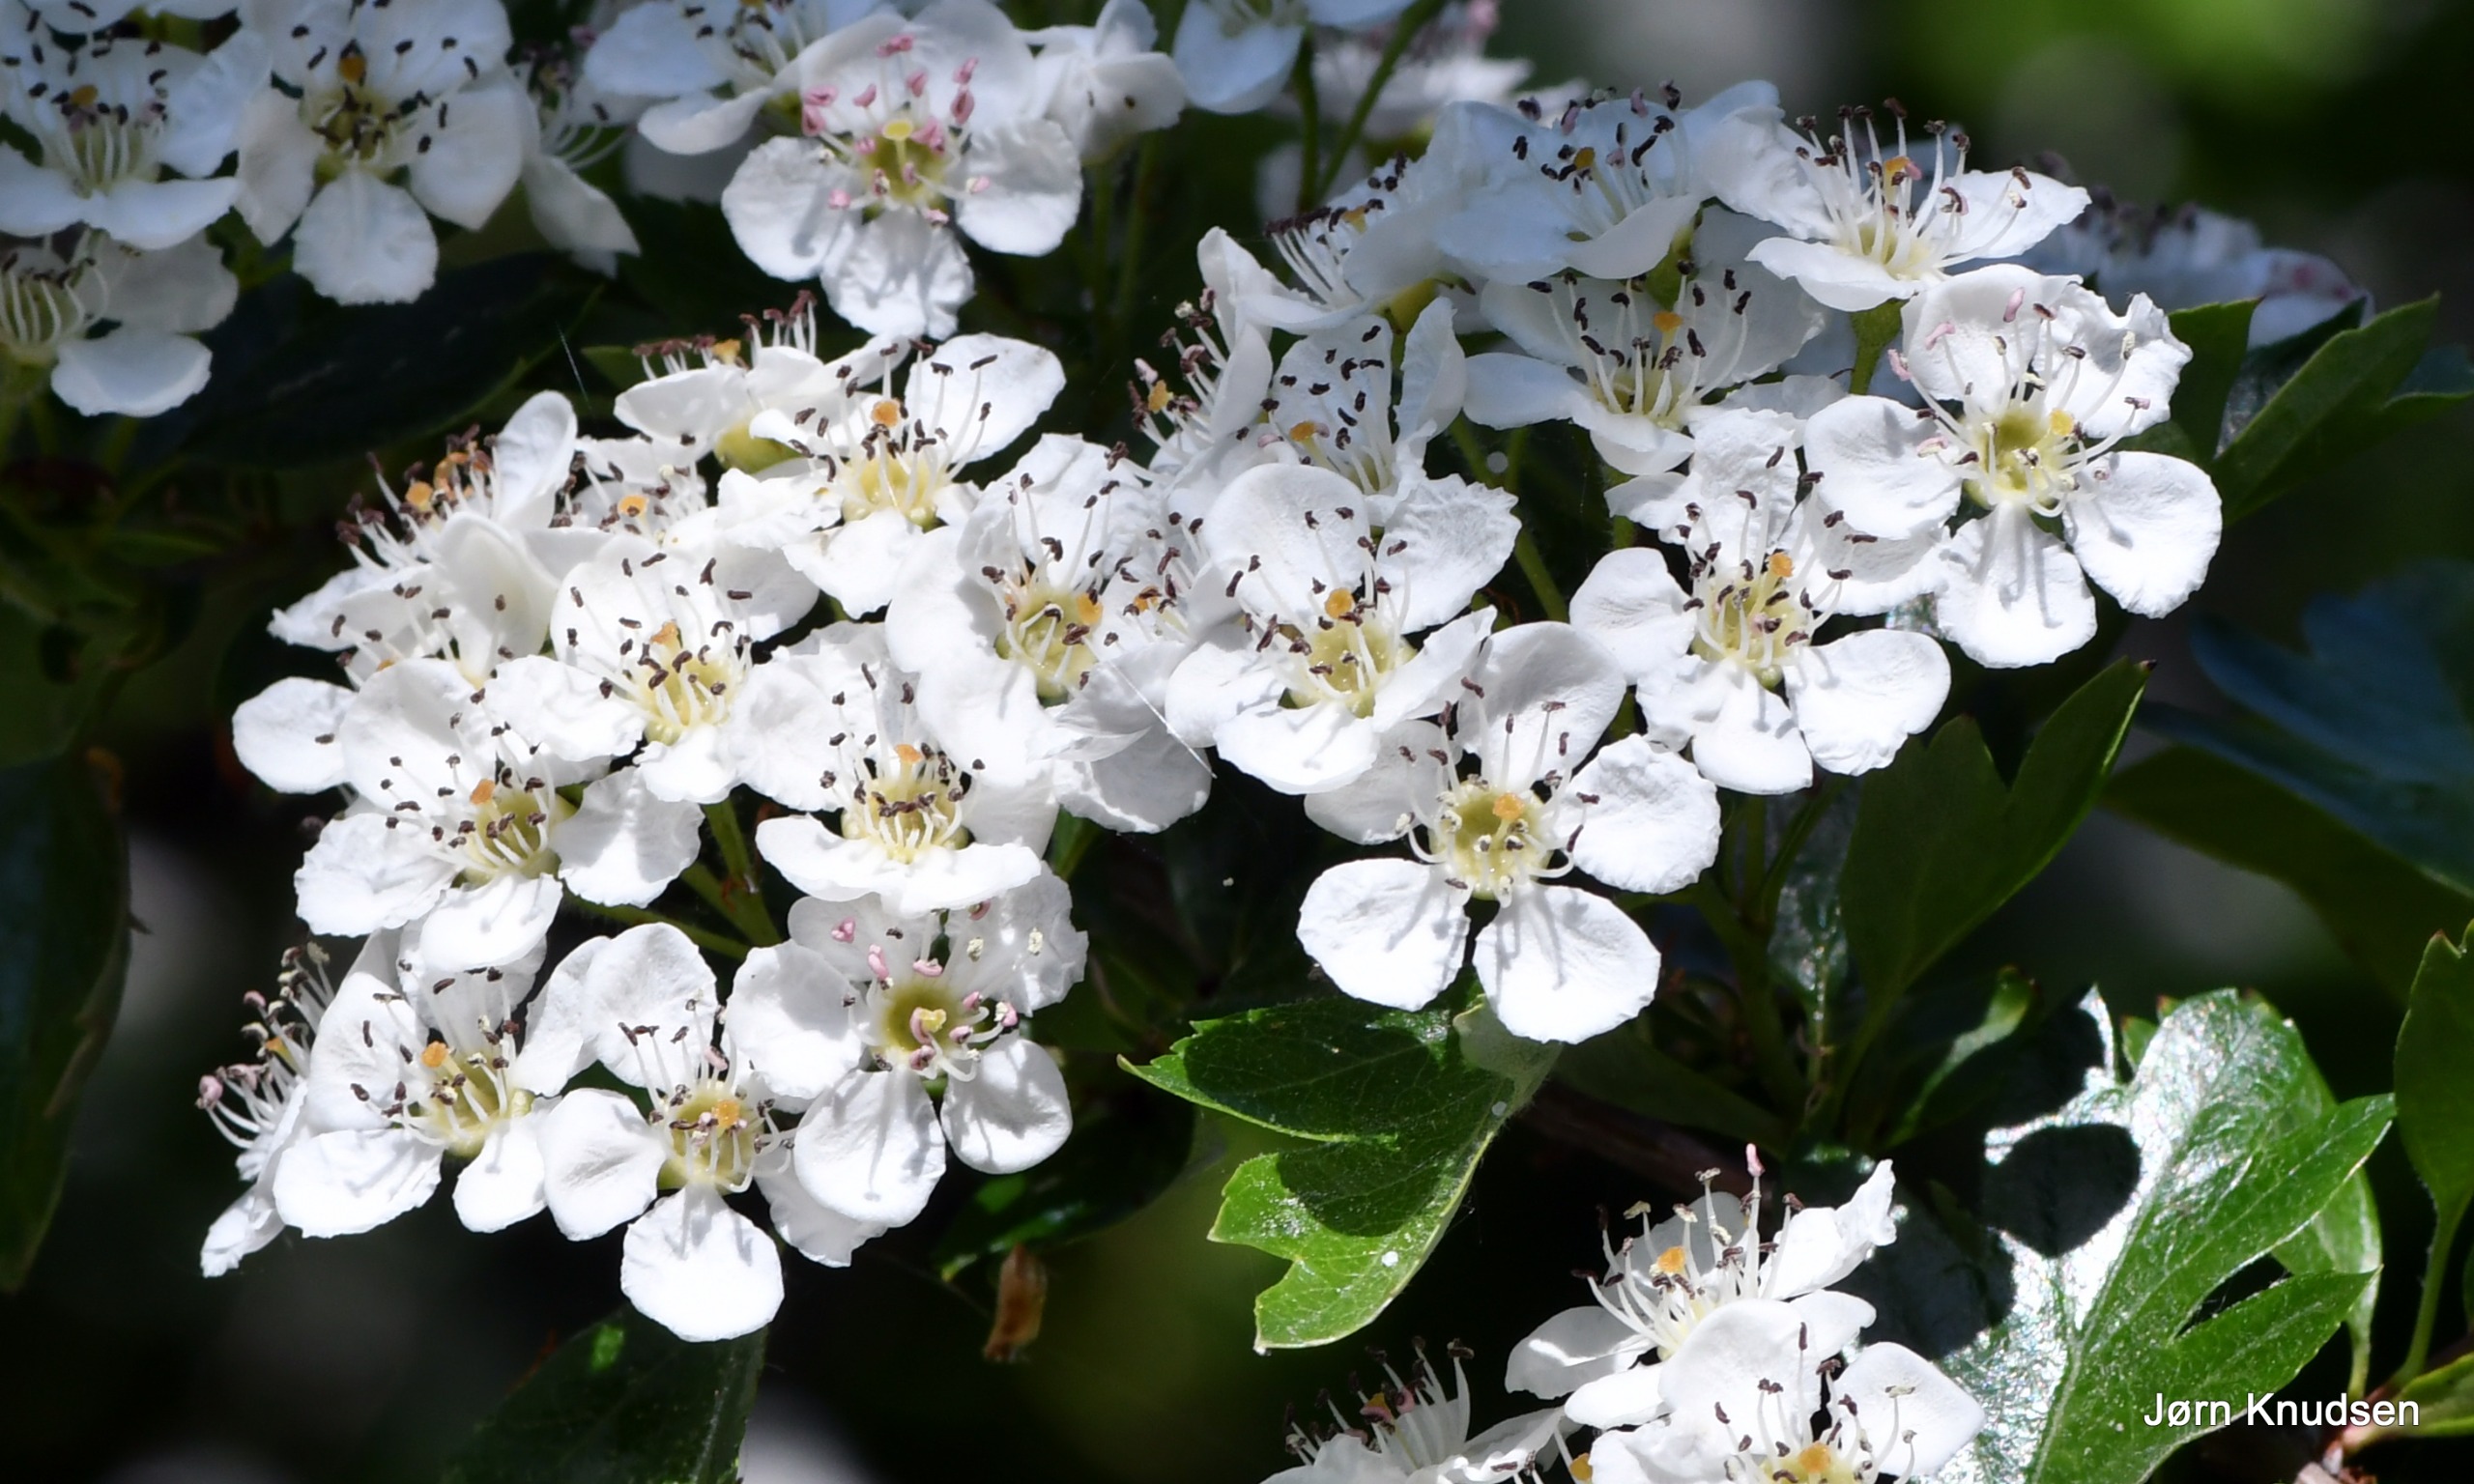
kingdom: Plantae
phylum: Tracheophyta
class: Magnoliopsida
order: Rosales
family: Rosaceae
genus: Crataegus
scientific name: Crataegus monogyna
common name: Engriflet hvidtjørn
